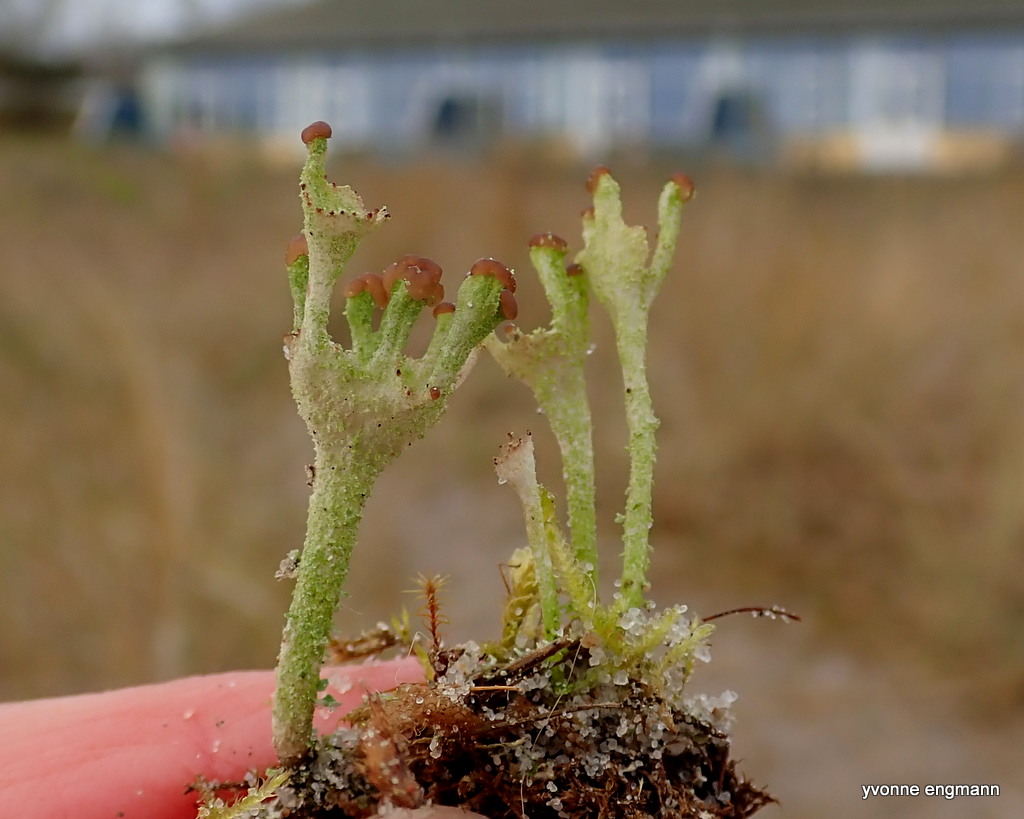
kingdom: Fungi
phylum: Ascomycota
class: Lecanoromycetes
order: Lecanorales
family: Cladoniaceae
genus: Cladonia
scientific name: Cladonia ramulosa
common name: kliddet bægerlav
